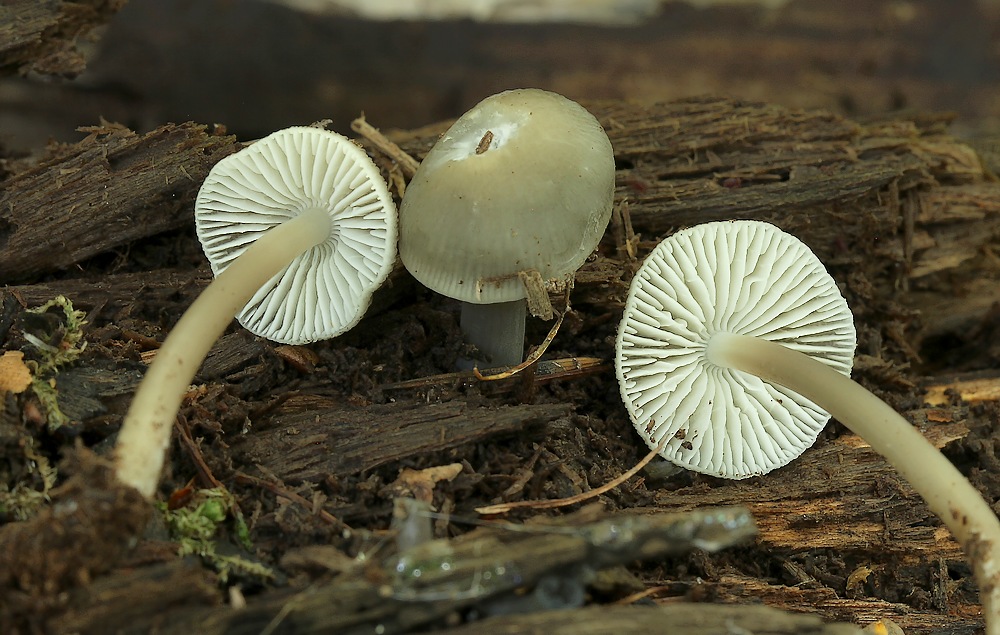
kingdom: Fungi
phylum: Basidiomycota
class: Agaricomycetes
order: Agaricales
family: Mycenaceae
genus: Mycena
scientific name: Mycena galericulata
